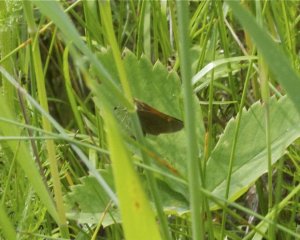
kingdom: Animalia
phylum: Arthropoda
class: Insecta
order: Lepidoptera
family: Hesperiidae
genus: Polites
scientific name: Polites themistocles
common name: Tawny-edged Skipper
